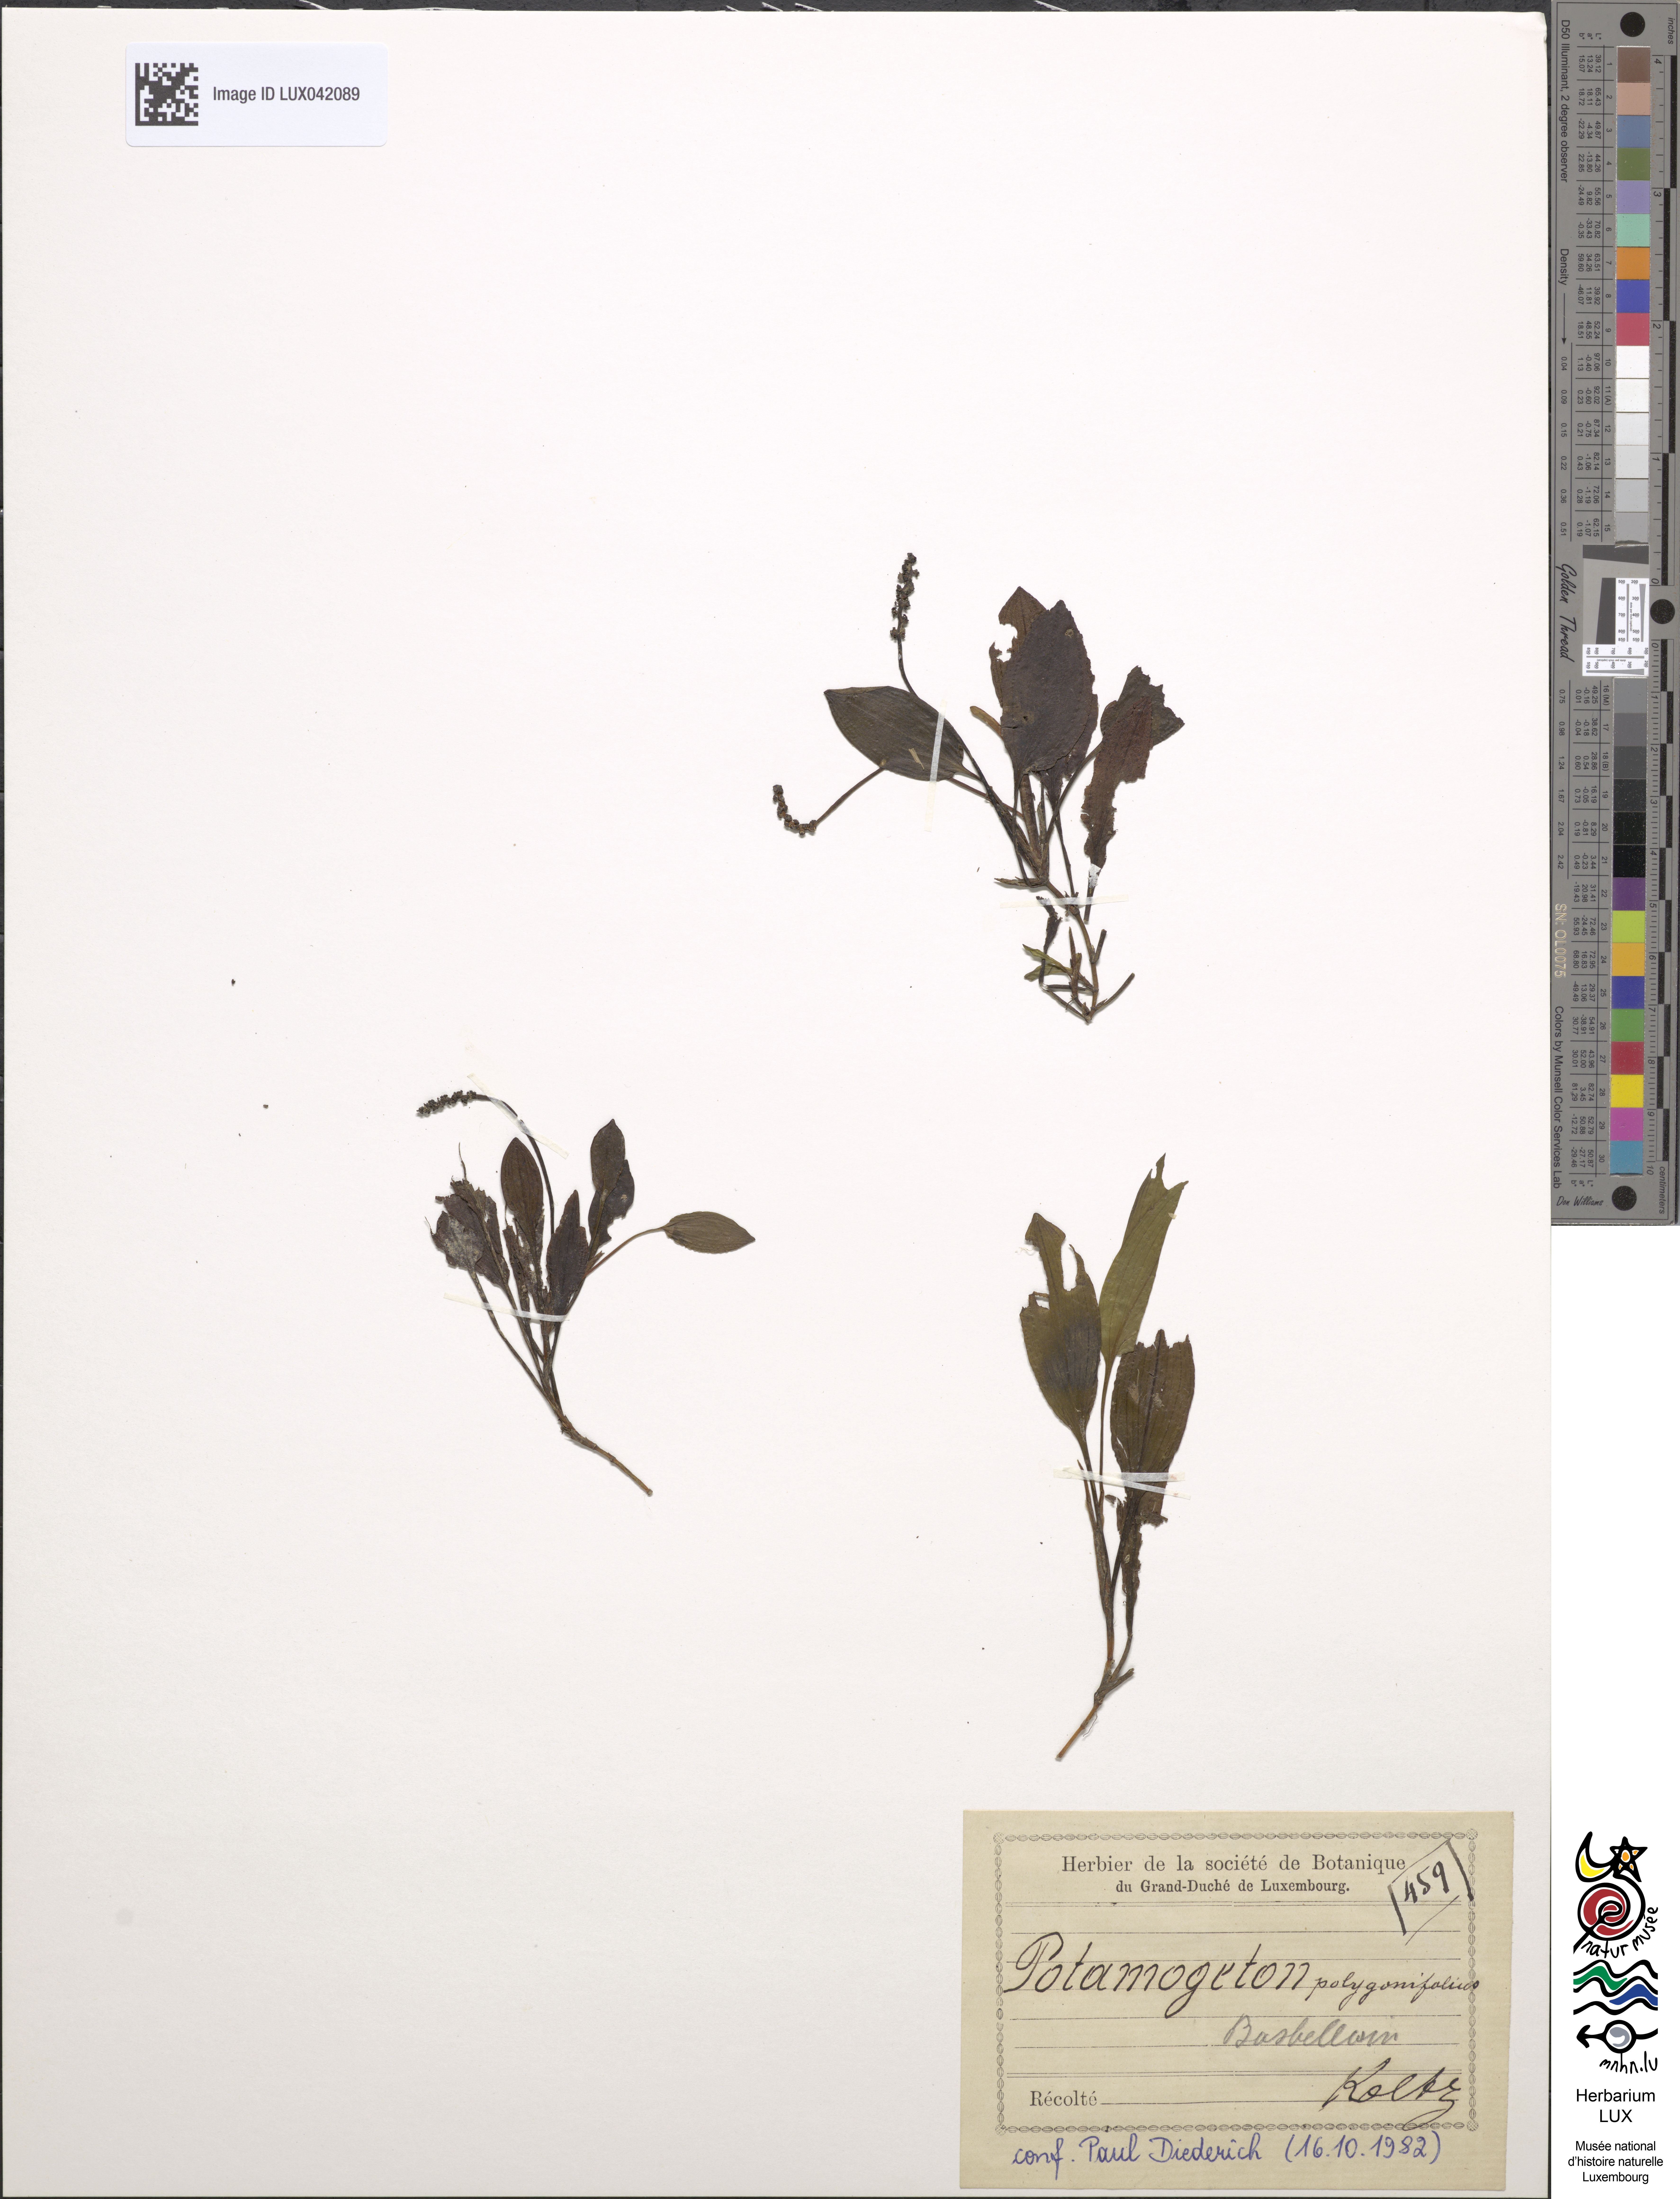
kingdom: Plantae
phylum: Tracheophyta
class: Liliopsida
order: Alismatales
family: Potamogetonaceae
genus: Potamogeton
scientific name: Potamogeton polygonifolius
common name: Bog pondweed
